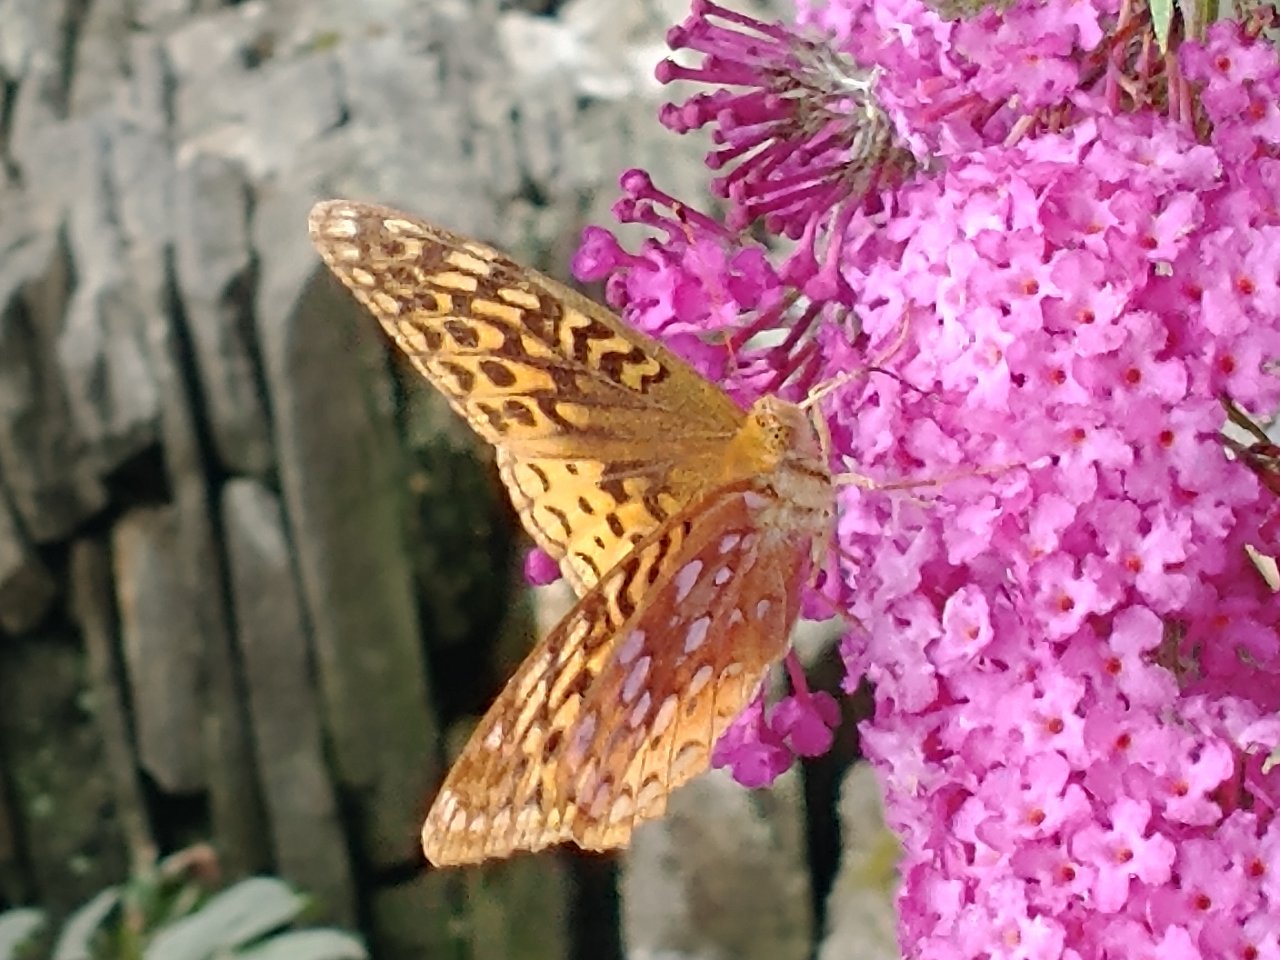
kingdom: Animalia
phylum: Arthropoda
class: Insecta
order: Lepidoptera
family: Nymphalidae
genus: Speyeria
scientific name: Speyeria cybele
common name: Great Spangled Fritillary
